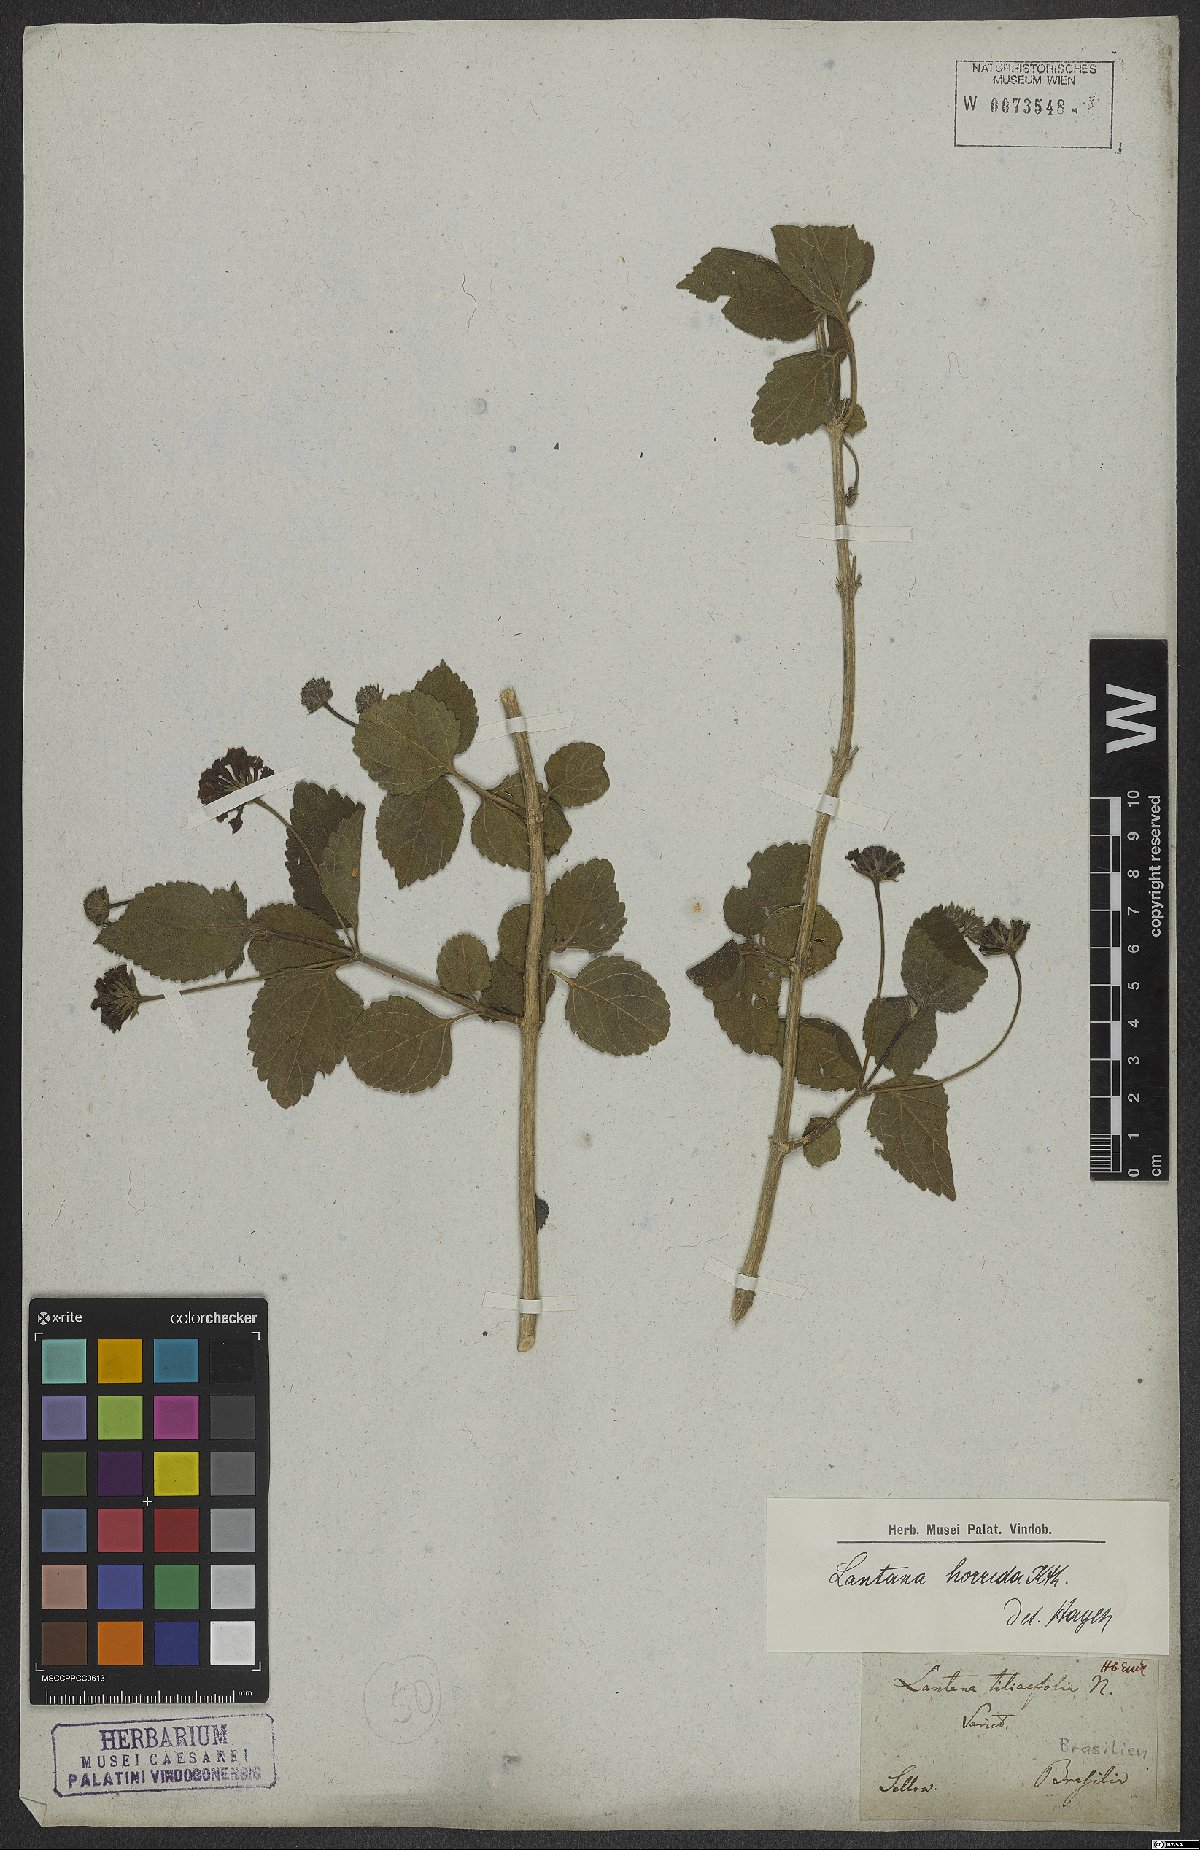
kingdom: Plantae
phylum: Tracheophyta
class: Magnoliopsida
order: Lamiales
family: Verbenaceae
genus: Lantana
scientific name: Lantana horrida
